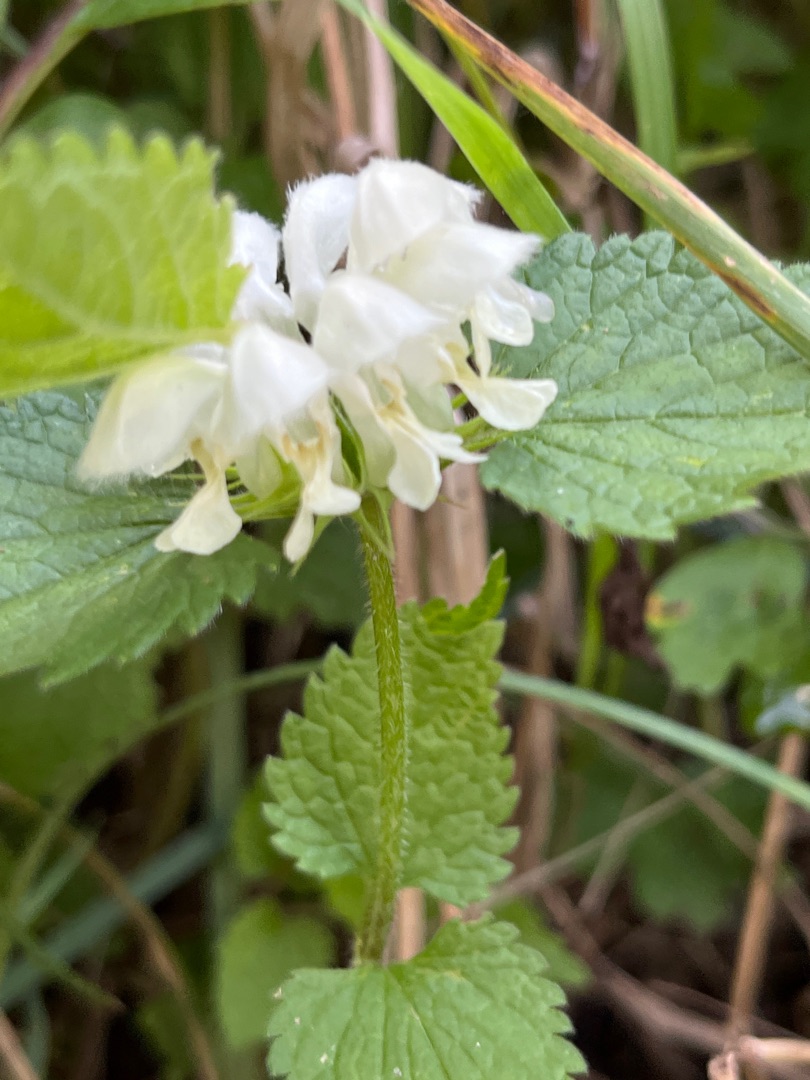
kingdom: Plantae
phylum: Tracheophyta
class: Magnoliopsida
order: Lamiales
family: Lamiaceae
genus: Lamium
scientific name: Lamium album
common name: Døvnælde
